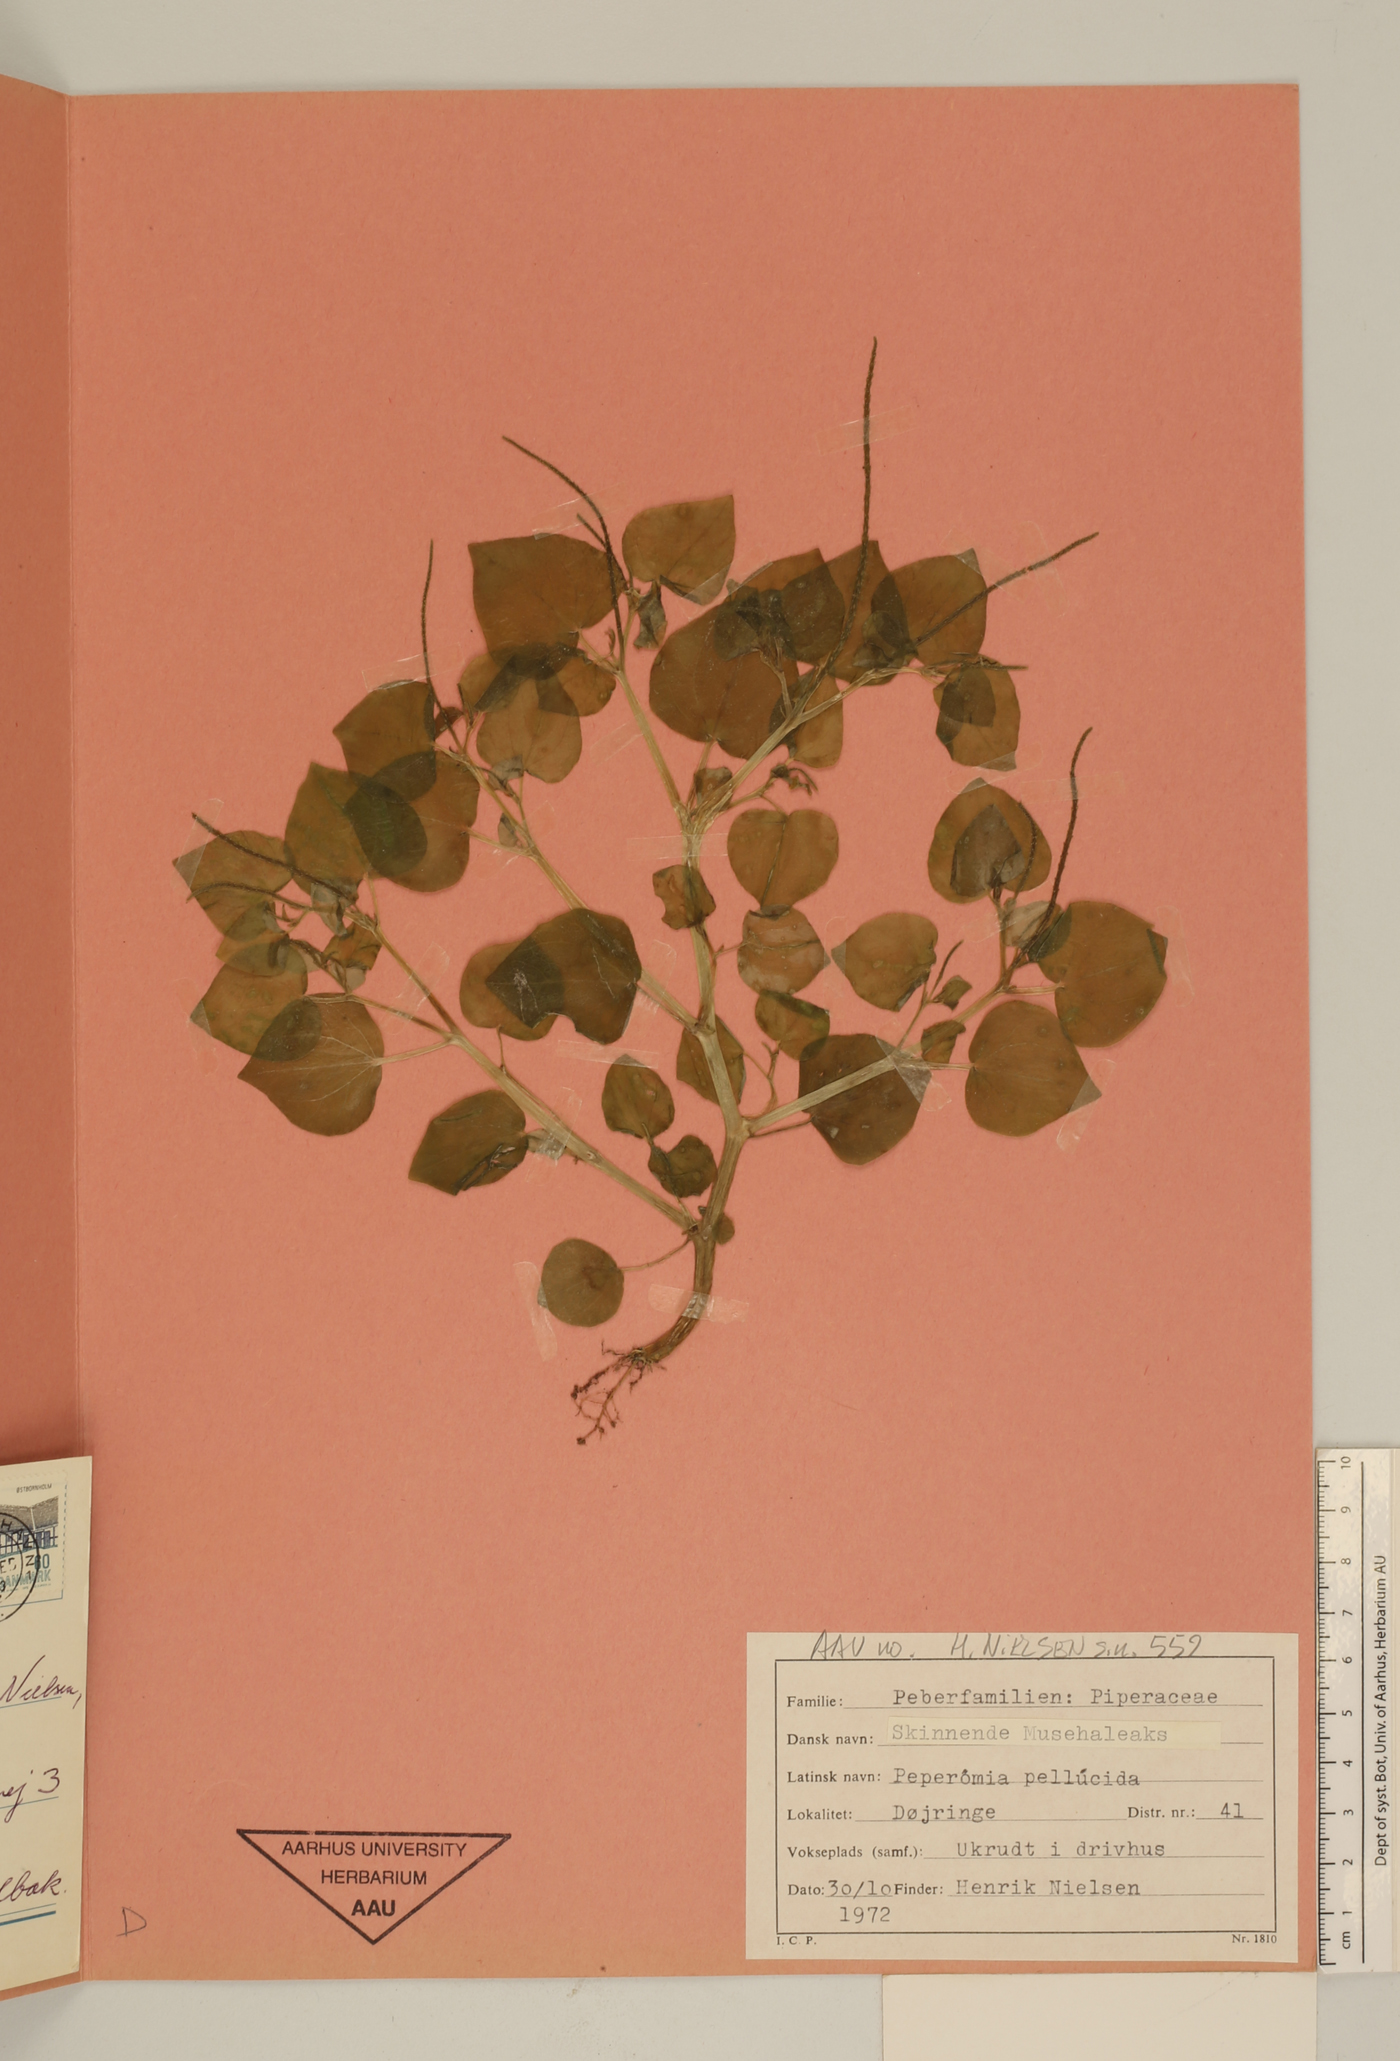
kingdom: Plantae
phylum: Tracheophyta
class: Magnoliopsida
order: Piperales
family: Piperaceae
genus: Peperomia
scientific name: Peperomia pellucida
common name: Man to man
